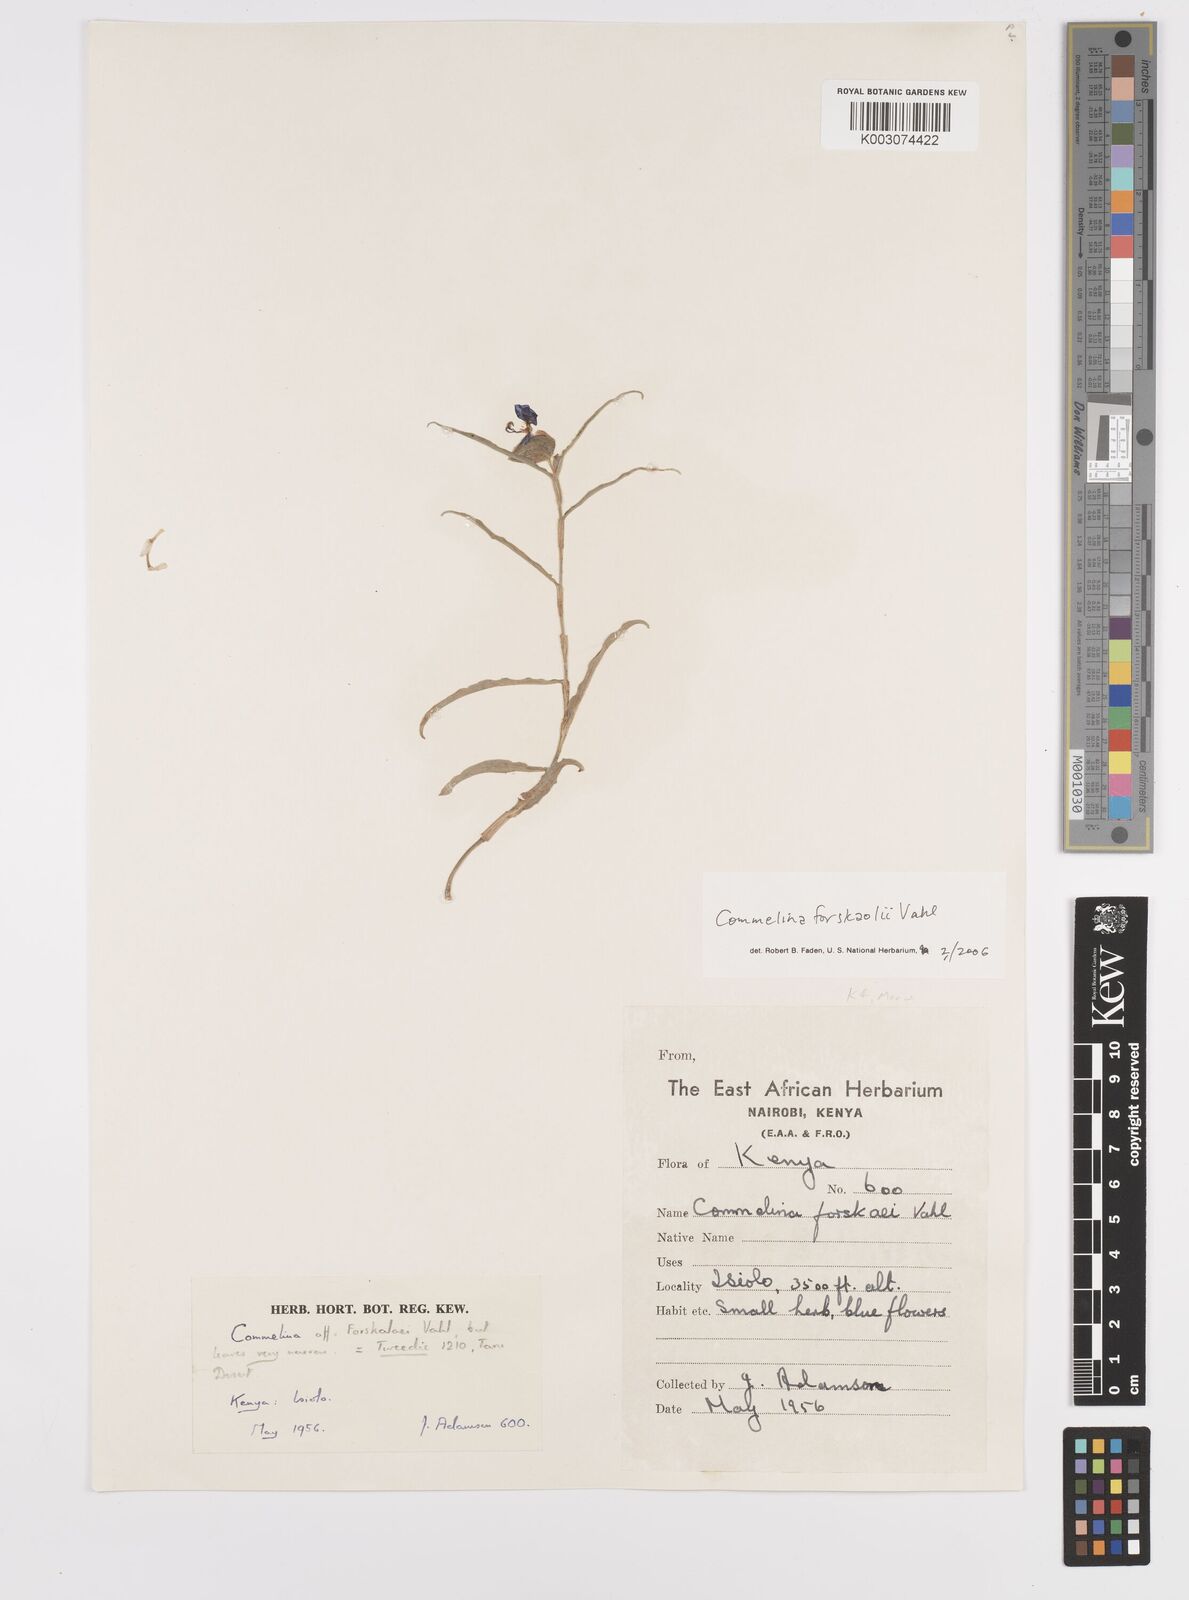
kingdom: Plantae
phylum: Tracheophyta
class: Liliopsida
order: Commelinales
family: Commelinaceae
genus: Commelina
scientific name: Commelina forskaolii
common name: Rat's ear
